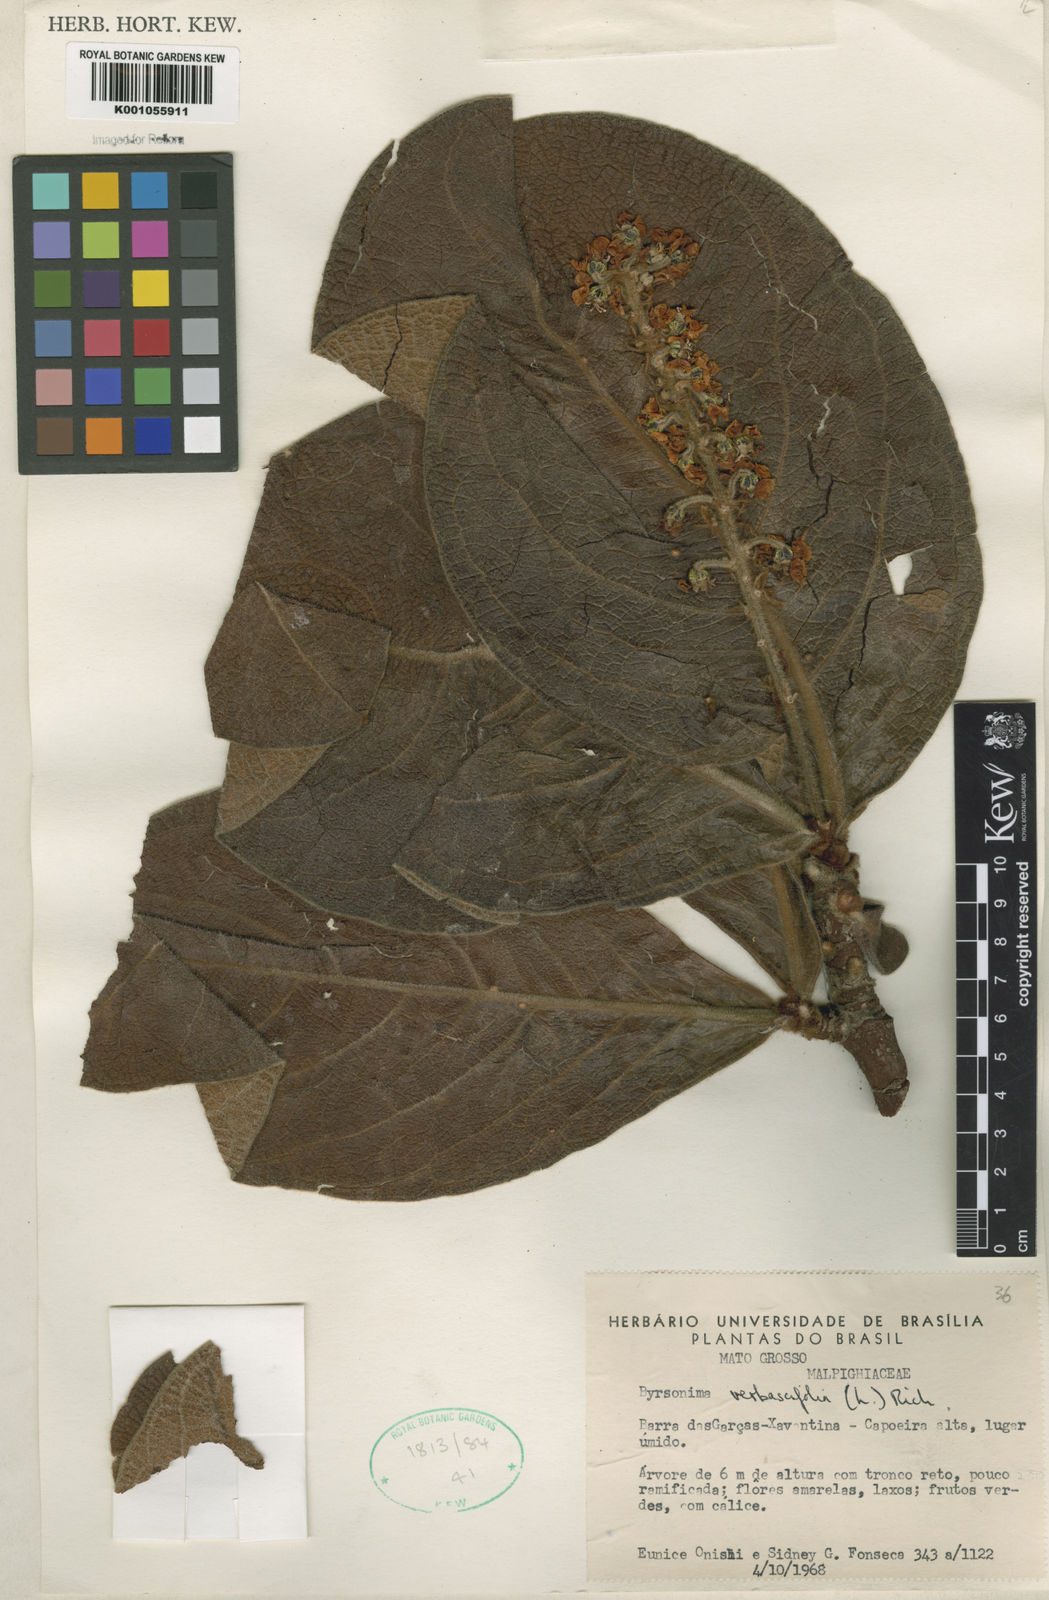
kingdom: Plantae
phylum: Tracheophyta
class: Magnoliopsida
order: Malpighiales
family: Malpighiaceae
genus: Byrsonima
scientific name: Byrsonima verbascifolia
